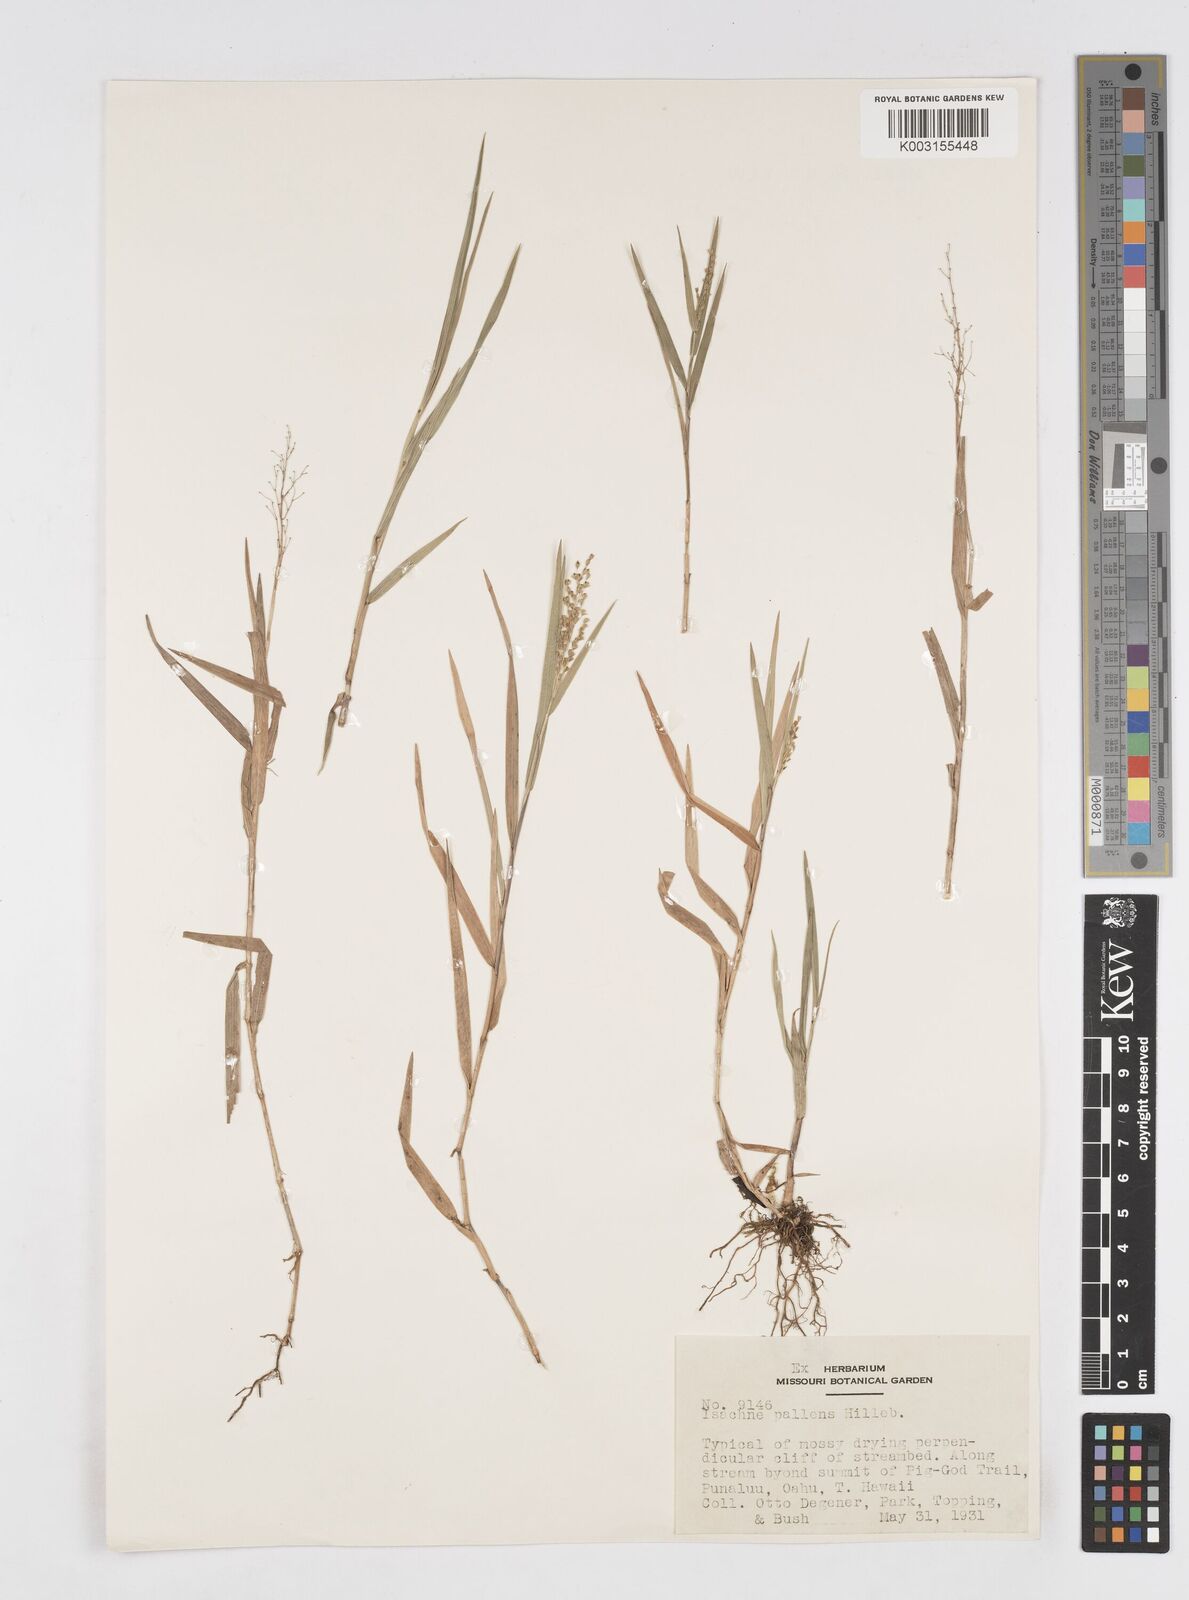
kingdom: Plantae
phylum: Tracheophyta
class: Liliopsida
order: Poales
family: Poaceae
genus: Isachne
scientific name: Isachne pallens
